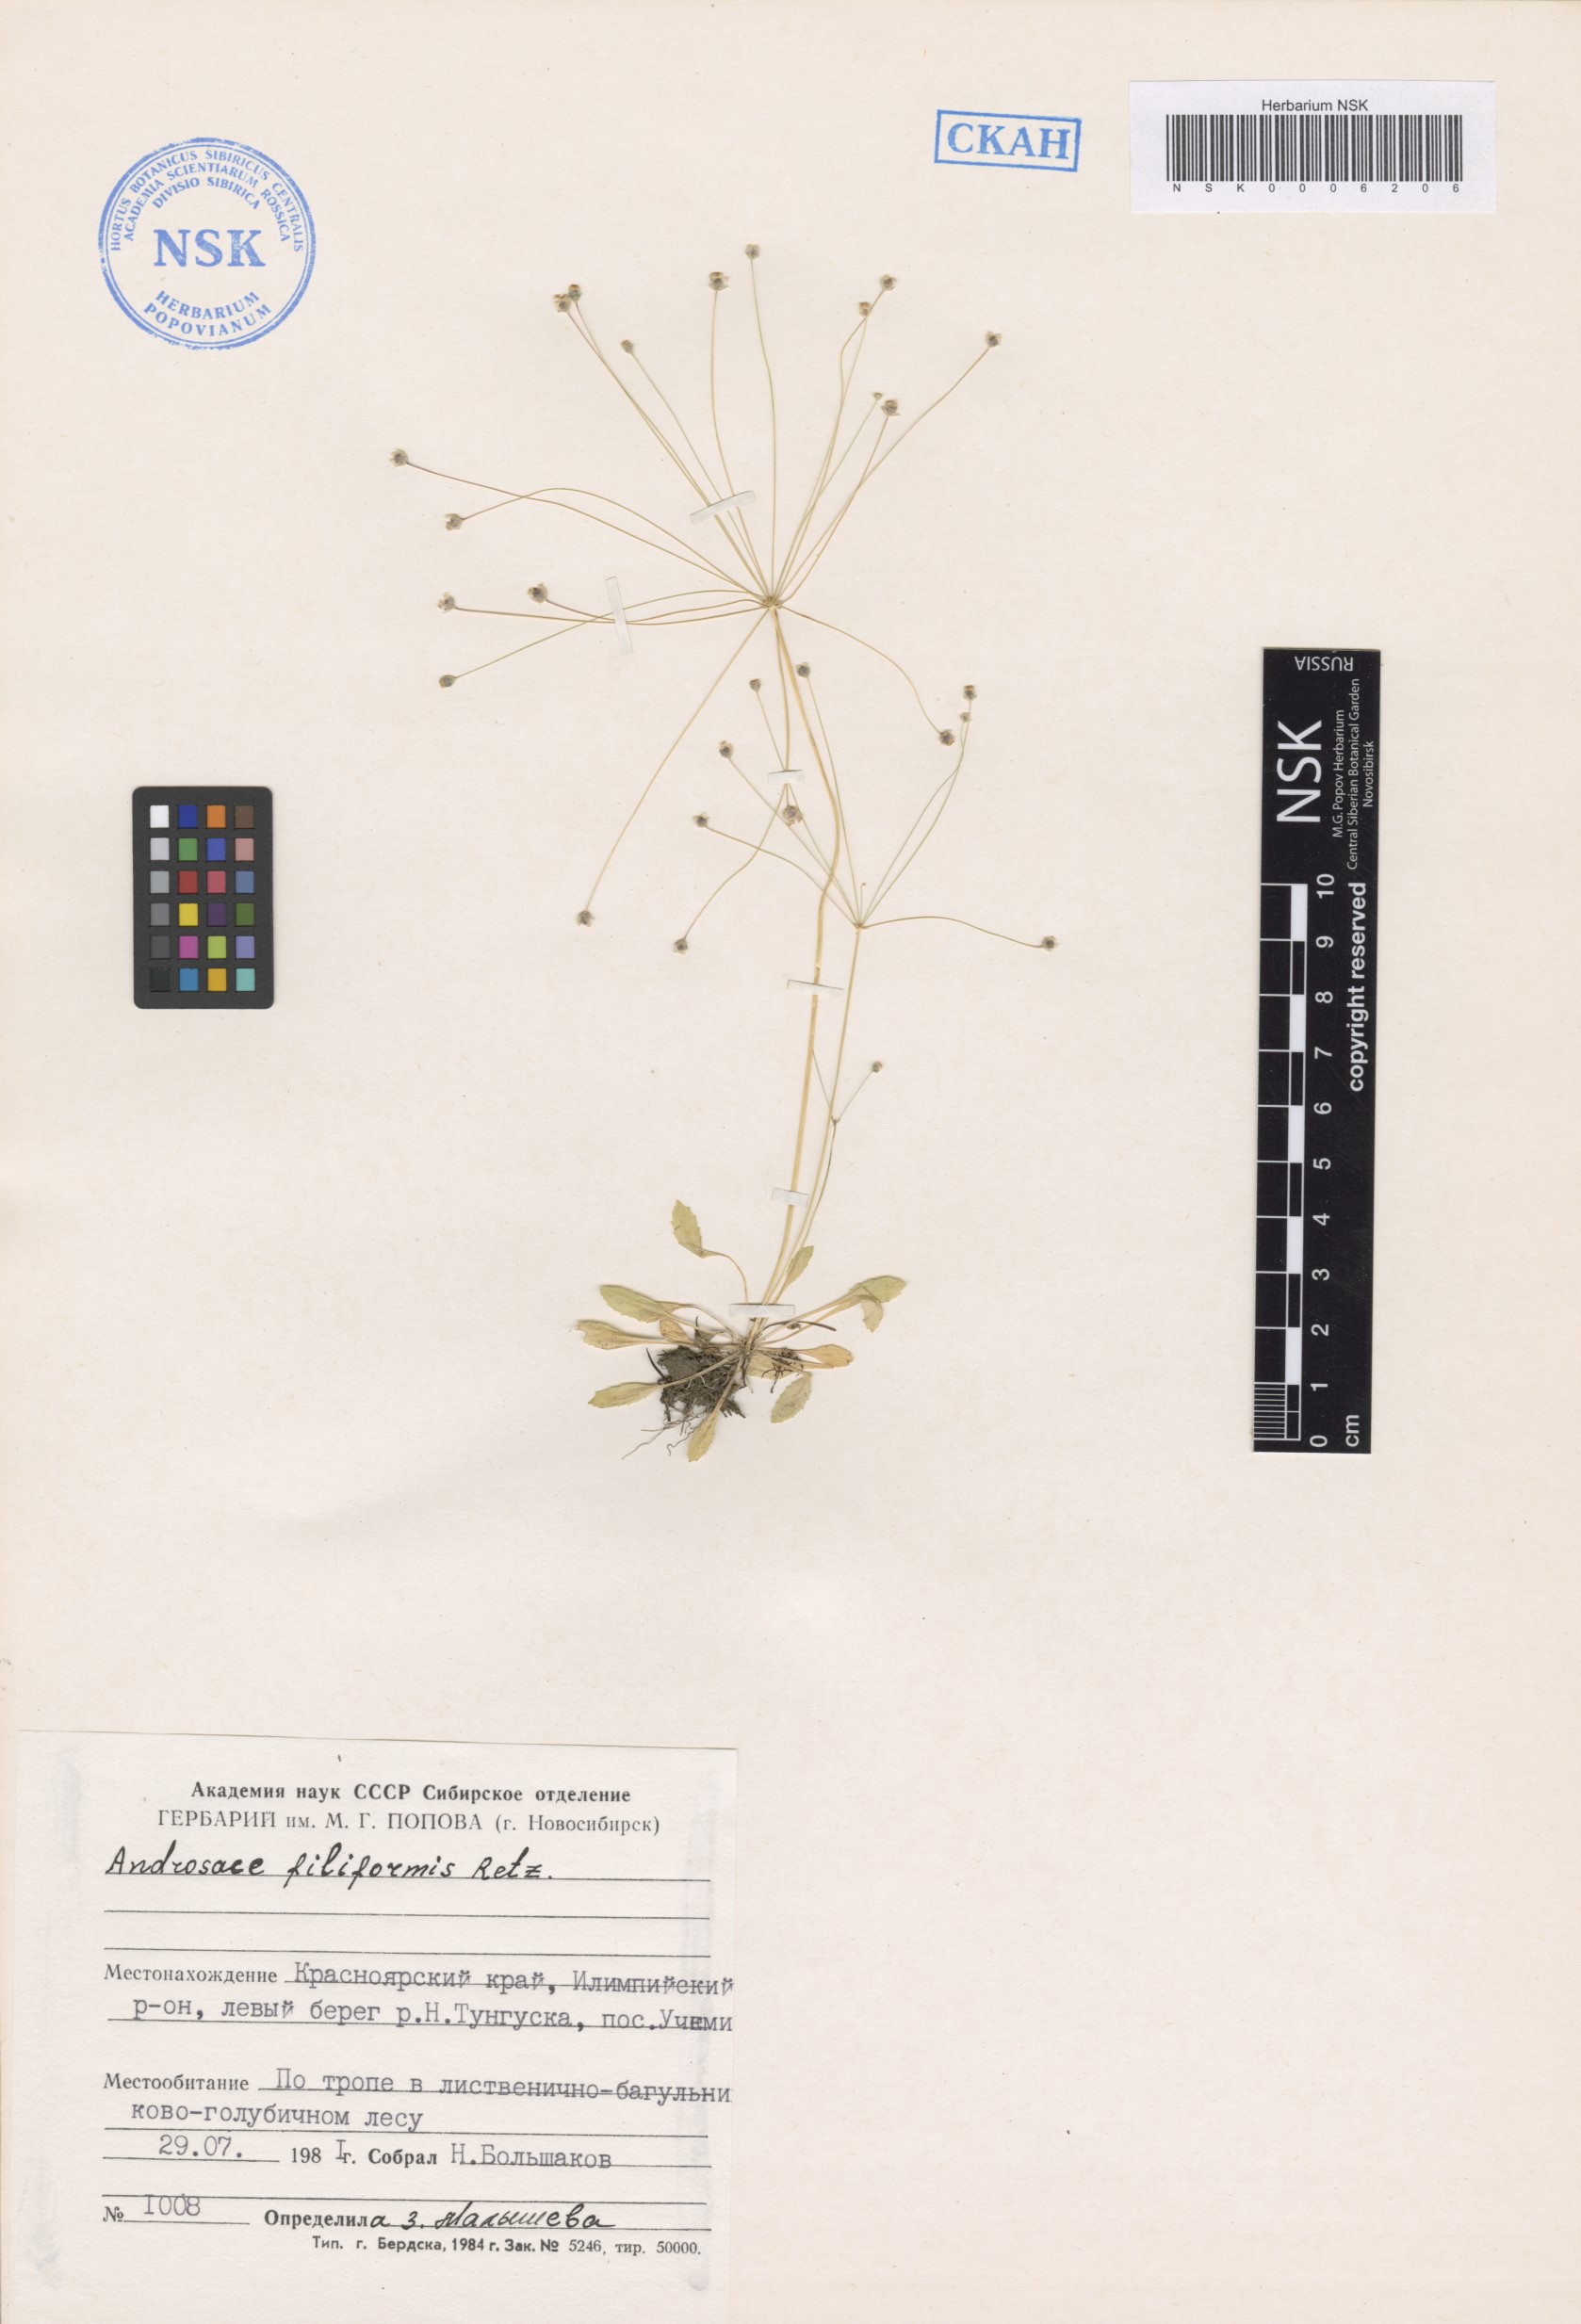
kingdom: Plantae
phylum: Tracheophyta
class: Magnoliopsida
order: Ericales
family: Primulaceae
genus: Androsace
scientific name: Androsace filiformis
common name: Filiform rock jasmine
